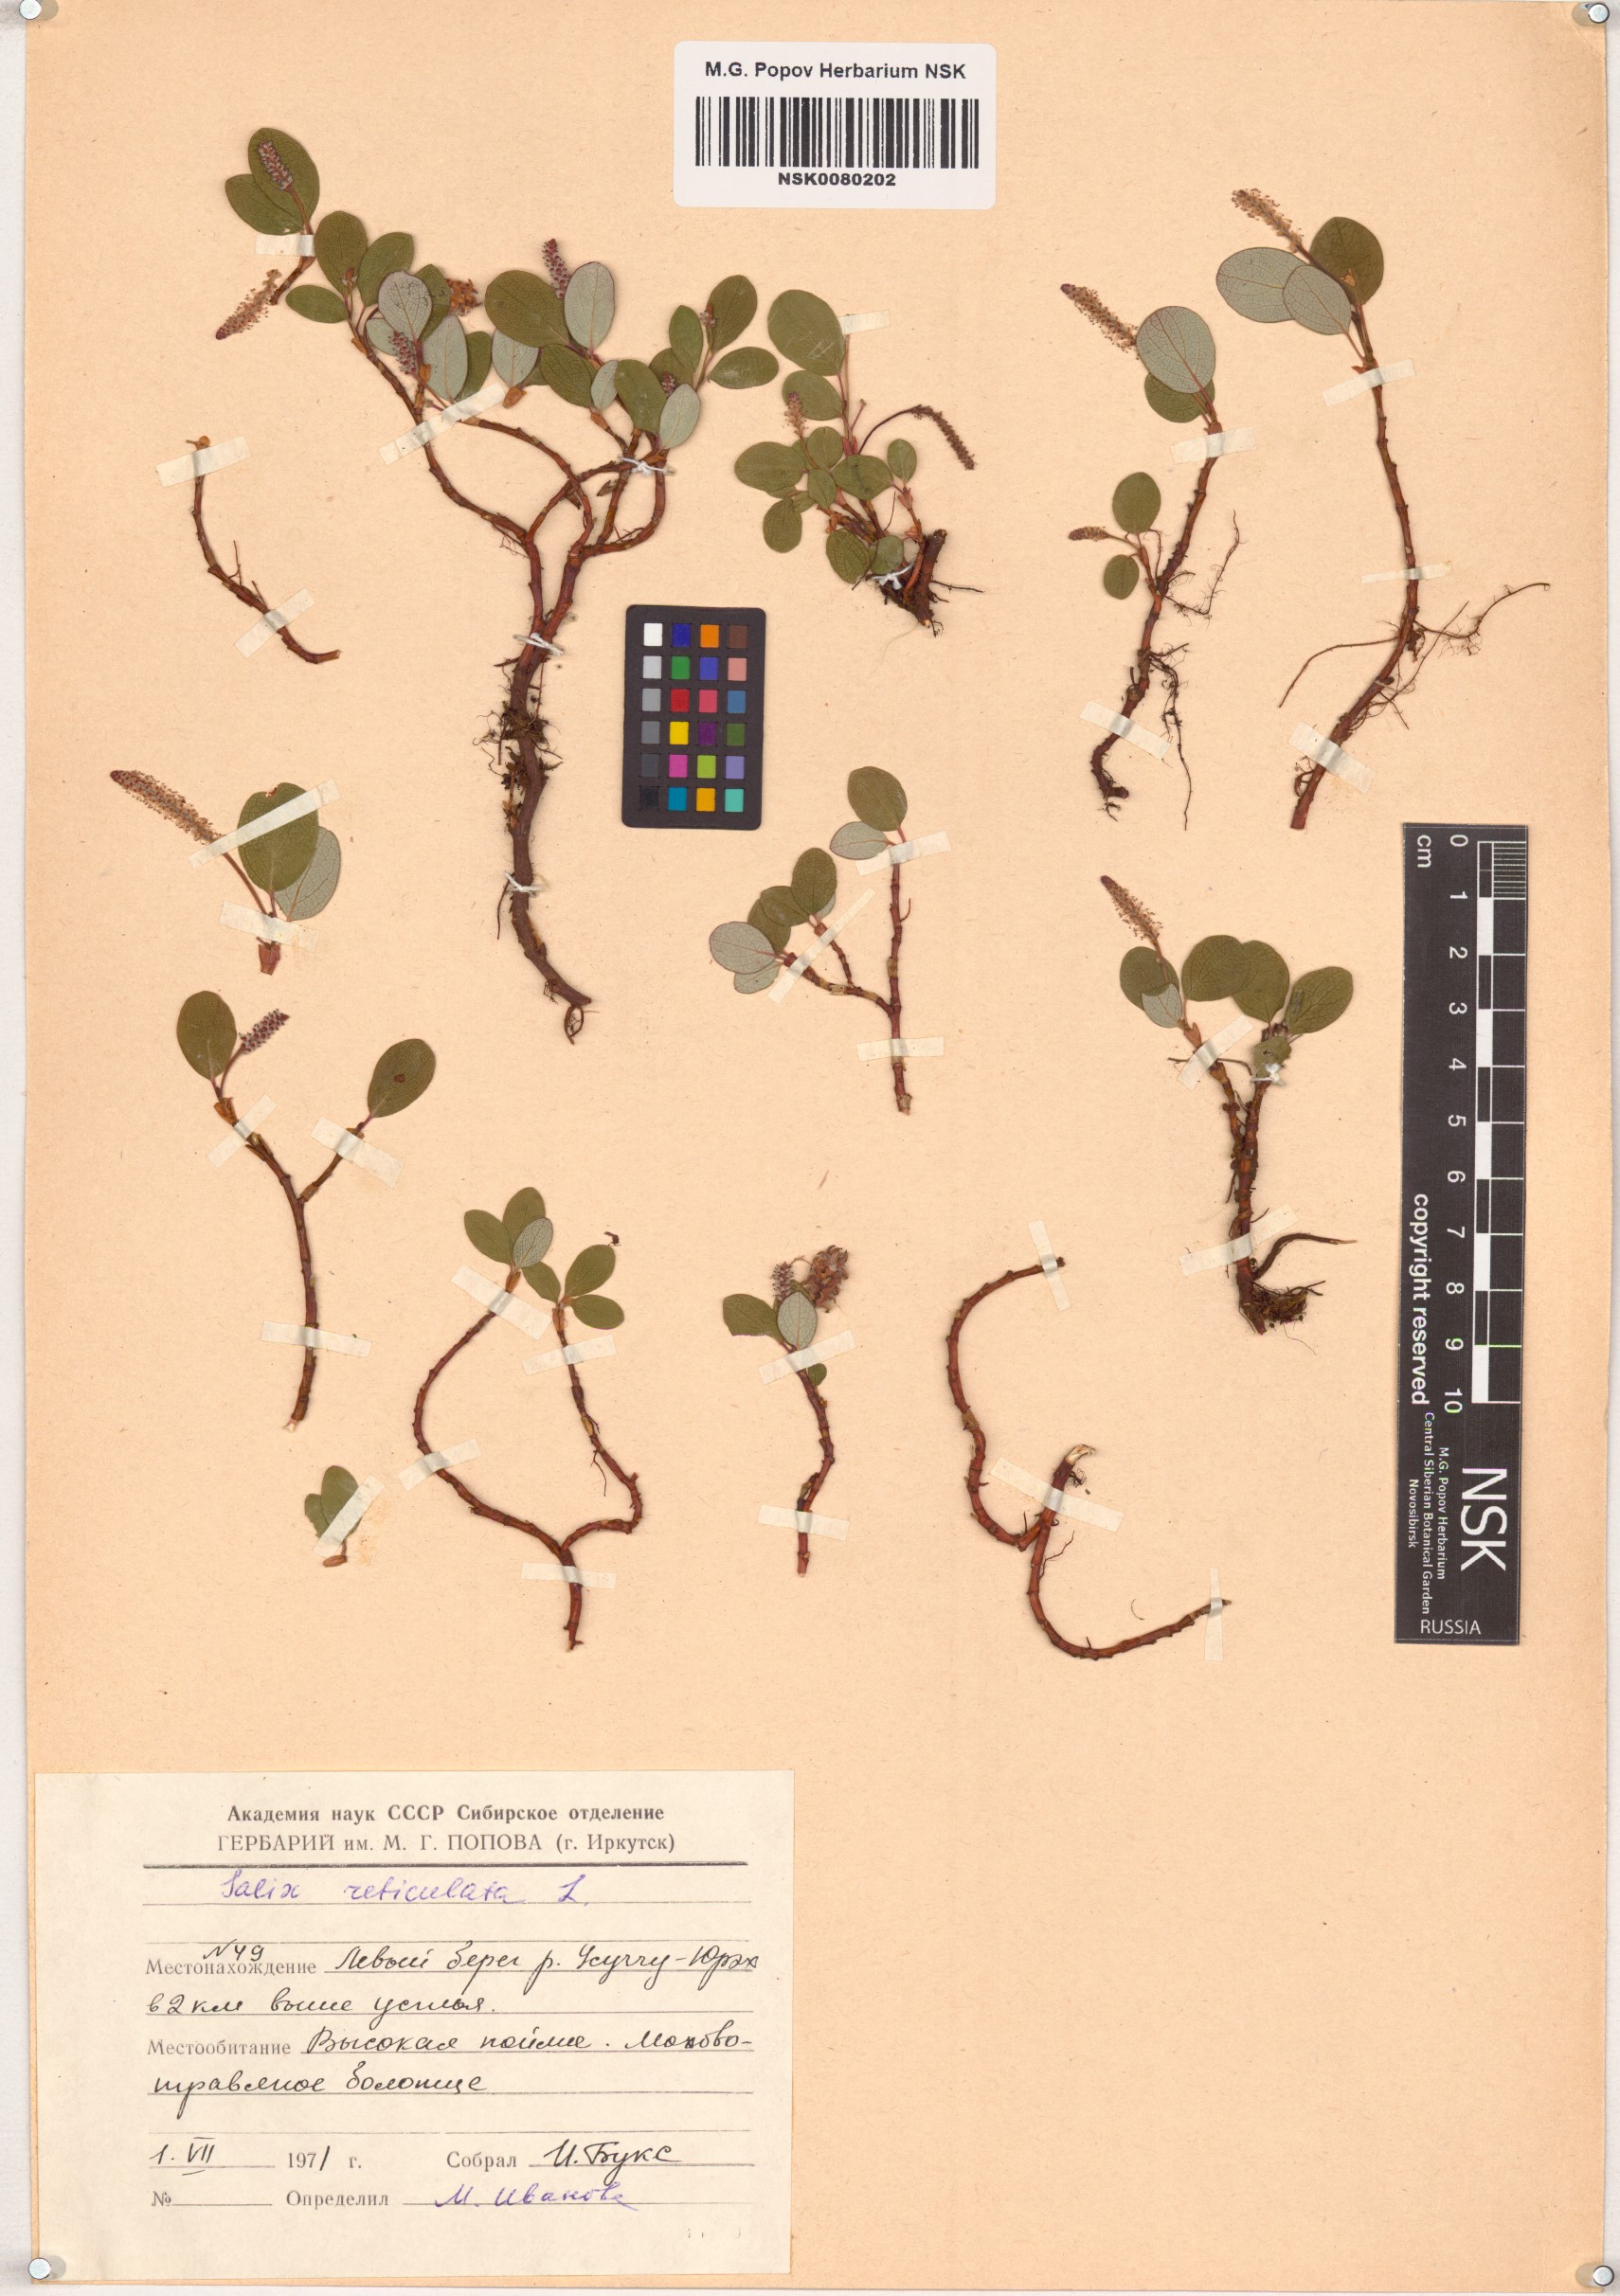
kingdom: Plantae
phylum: Tracheophyta
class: Magnoliopsida
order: Malpighiales
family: Salicaceae
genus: Salix
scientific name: Salix reticulata
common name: Net-leaved willow
